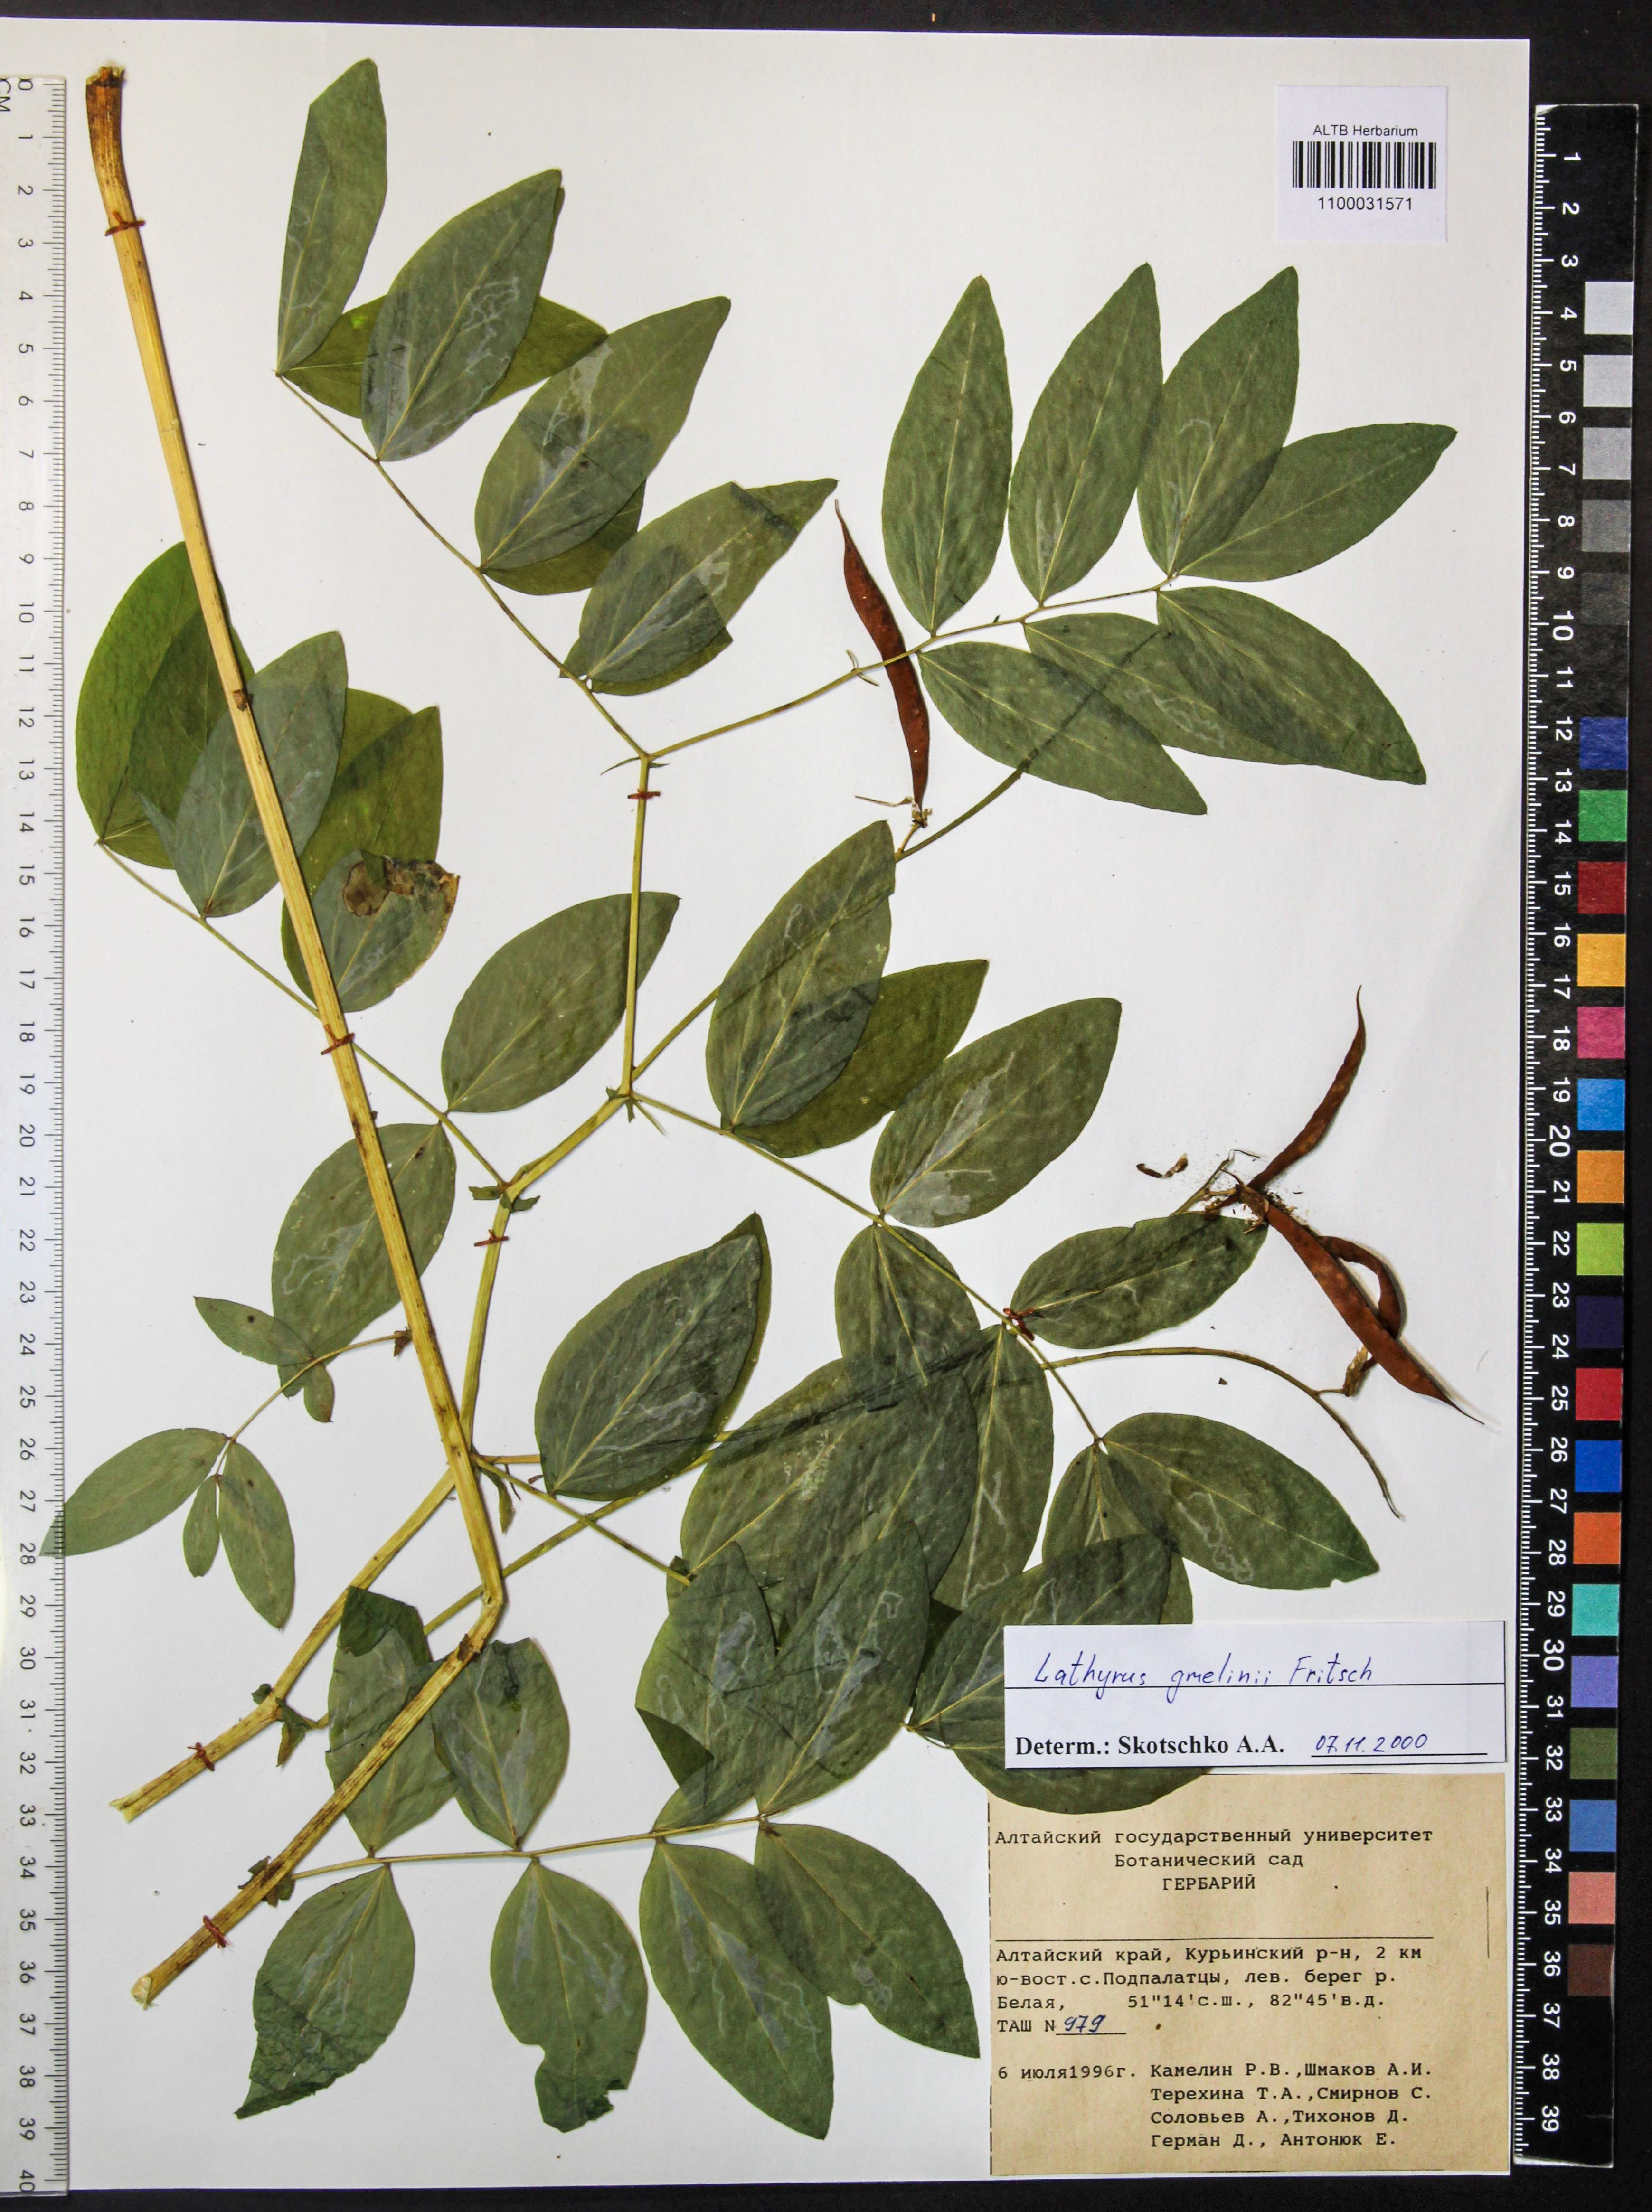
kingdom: Plantae
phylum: Tracheophyta
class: Magnoliopsida
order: Fabales
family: Fabaceae
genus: Lathyrus
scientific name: Lathyrus gmelinii
